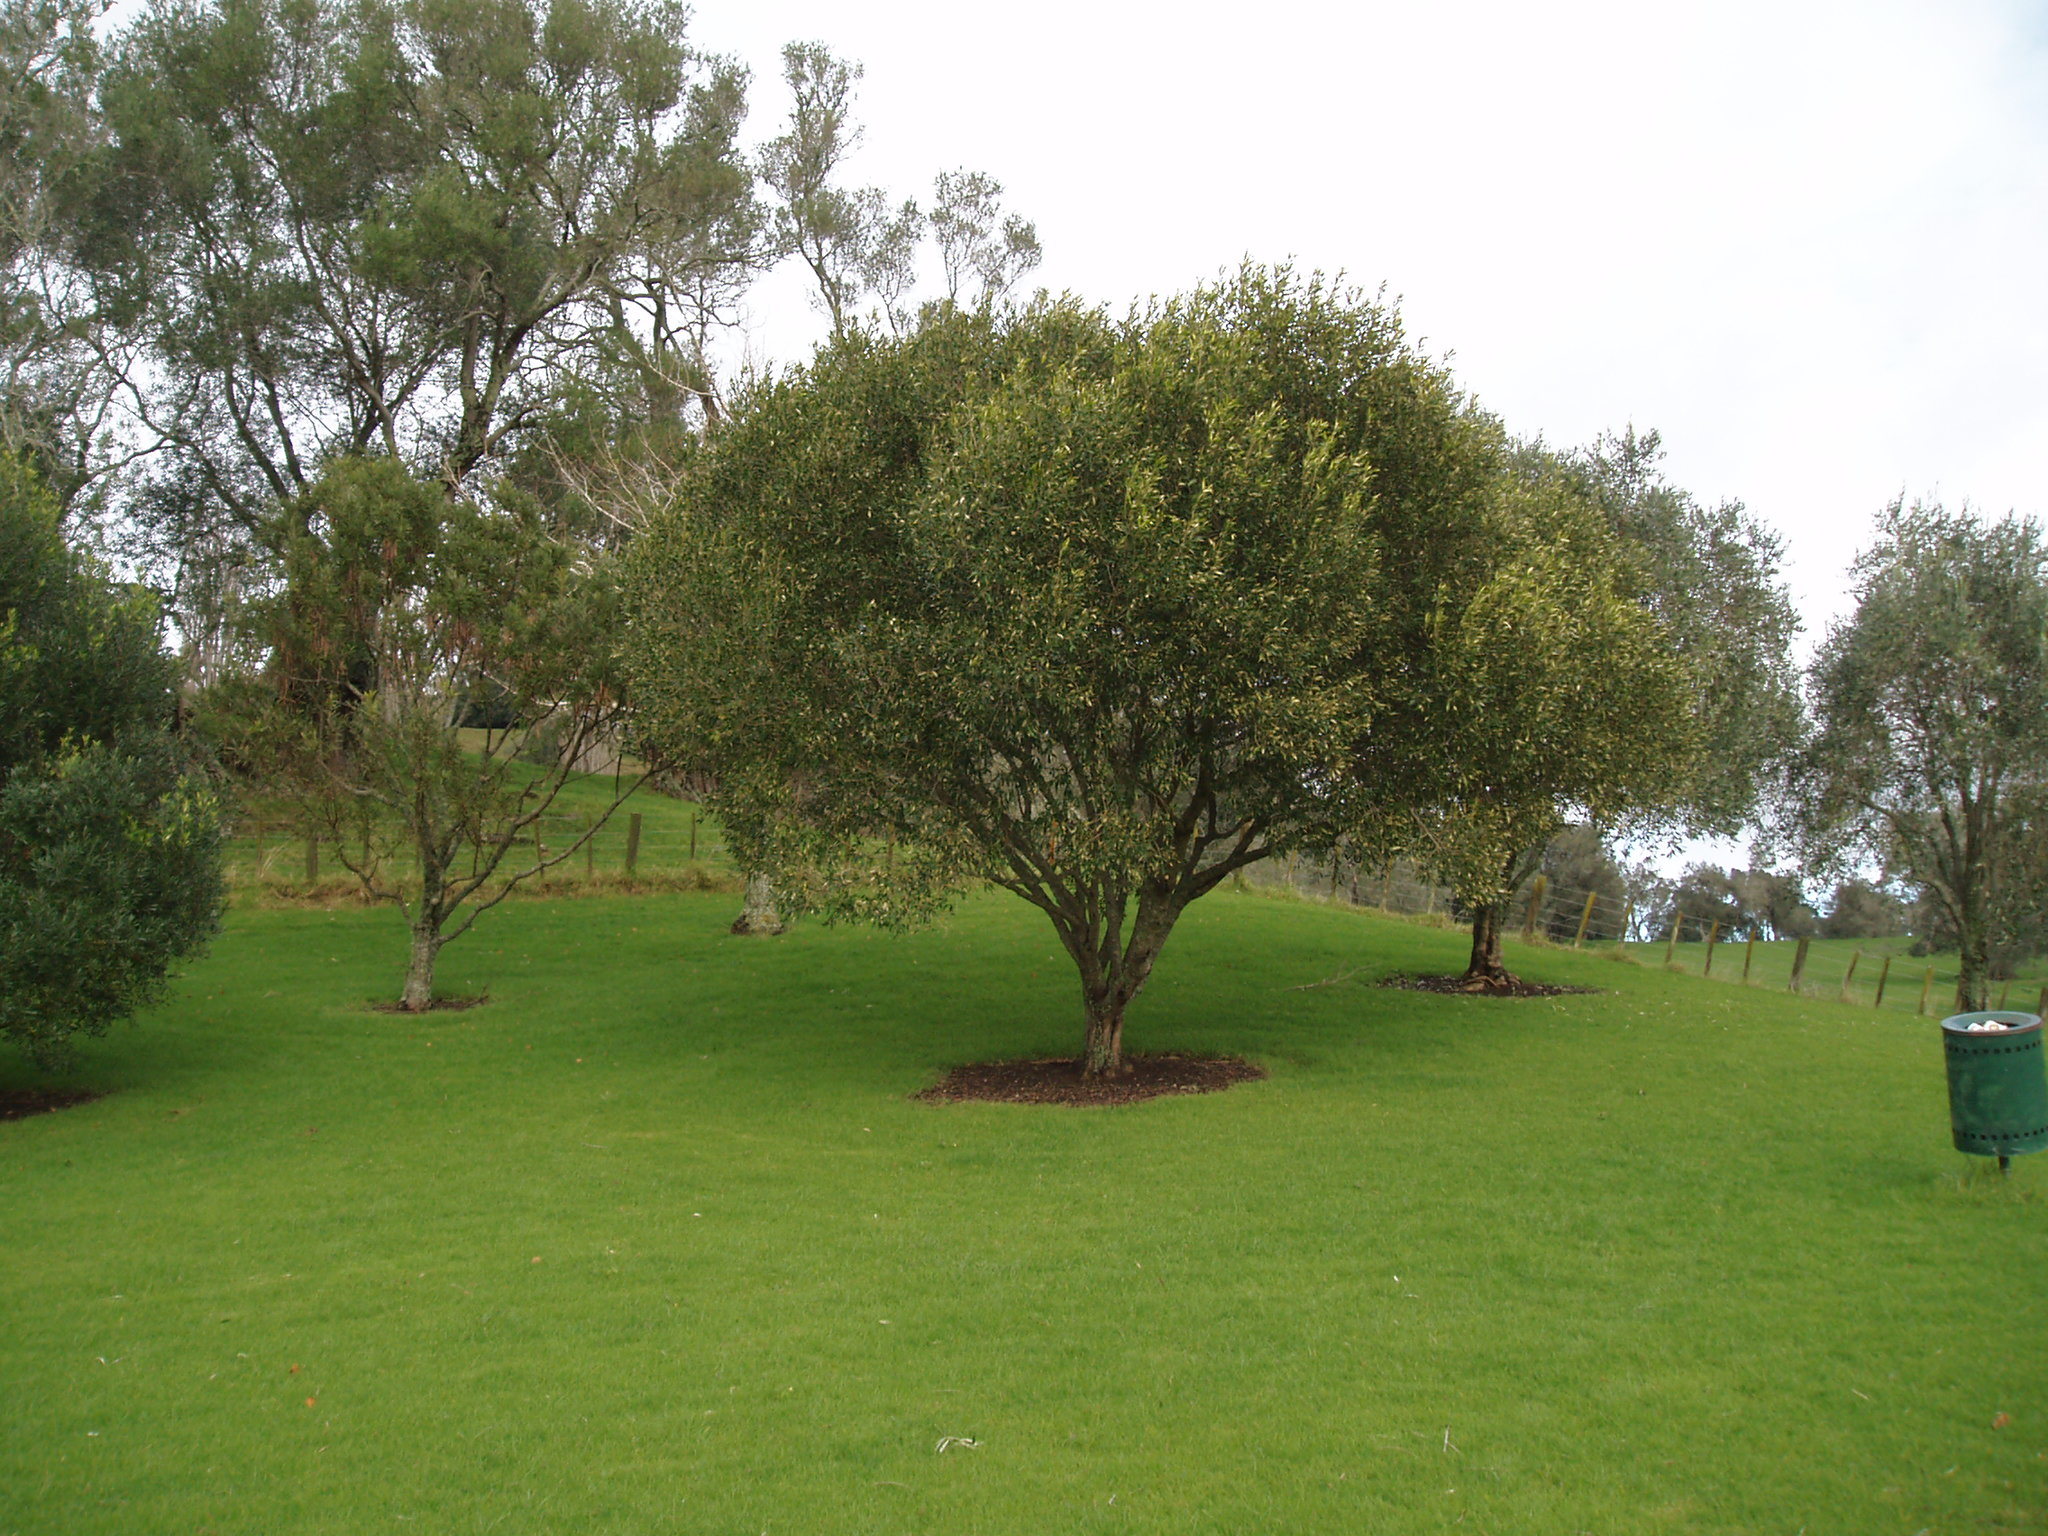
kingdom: Plantae
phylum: Tracheophyta
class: Magnoliopsida
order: Lamiales
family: Oleaceae
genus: Olea
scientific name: Olea europaea
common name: Olive
